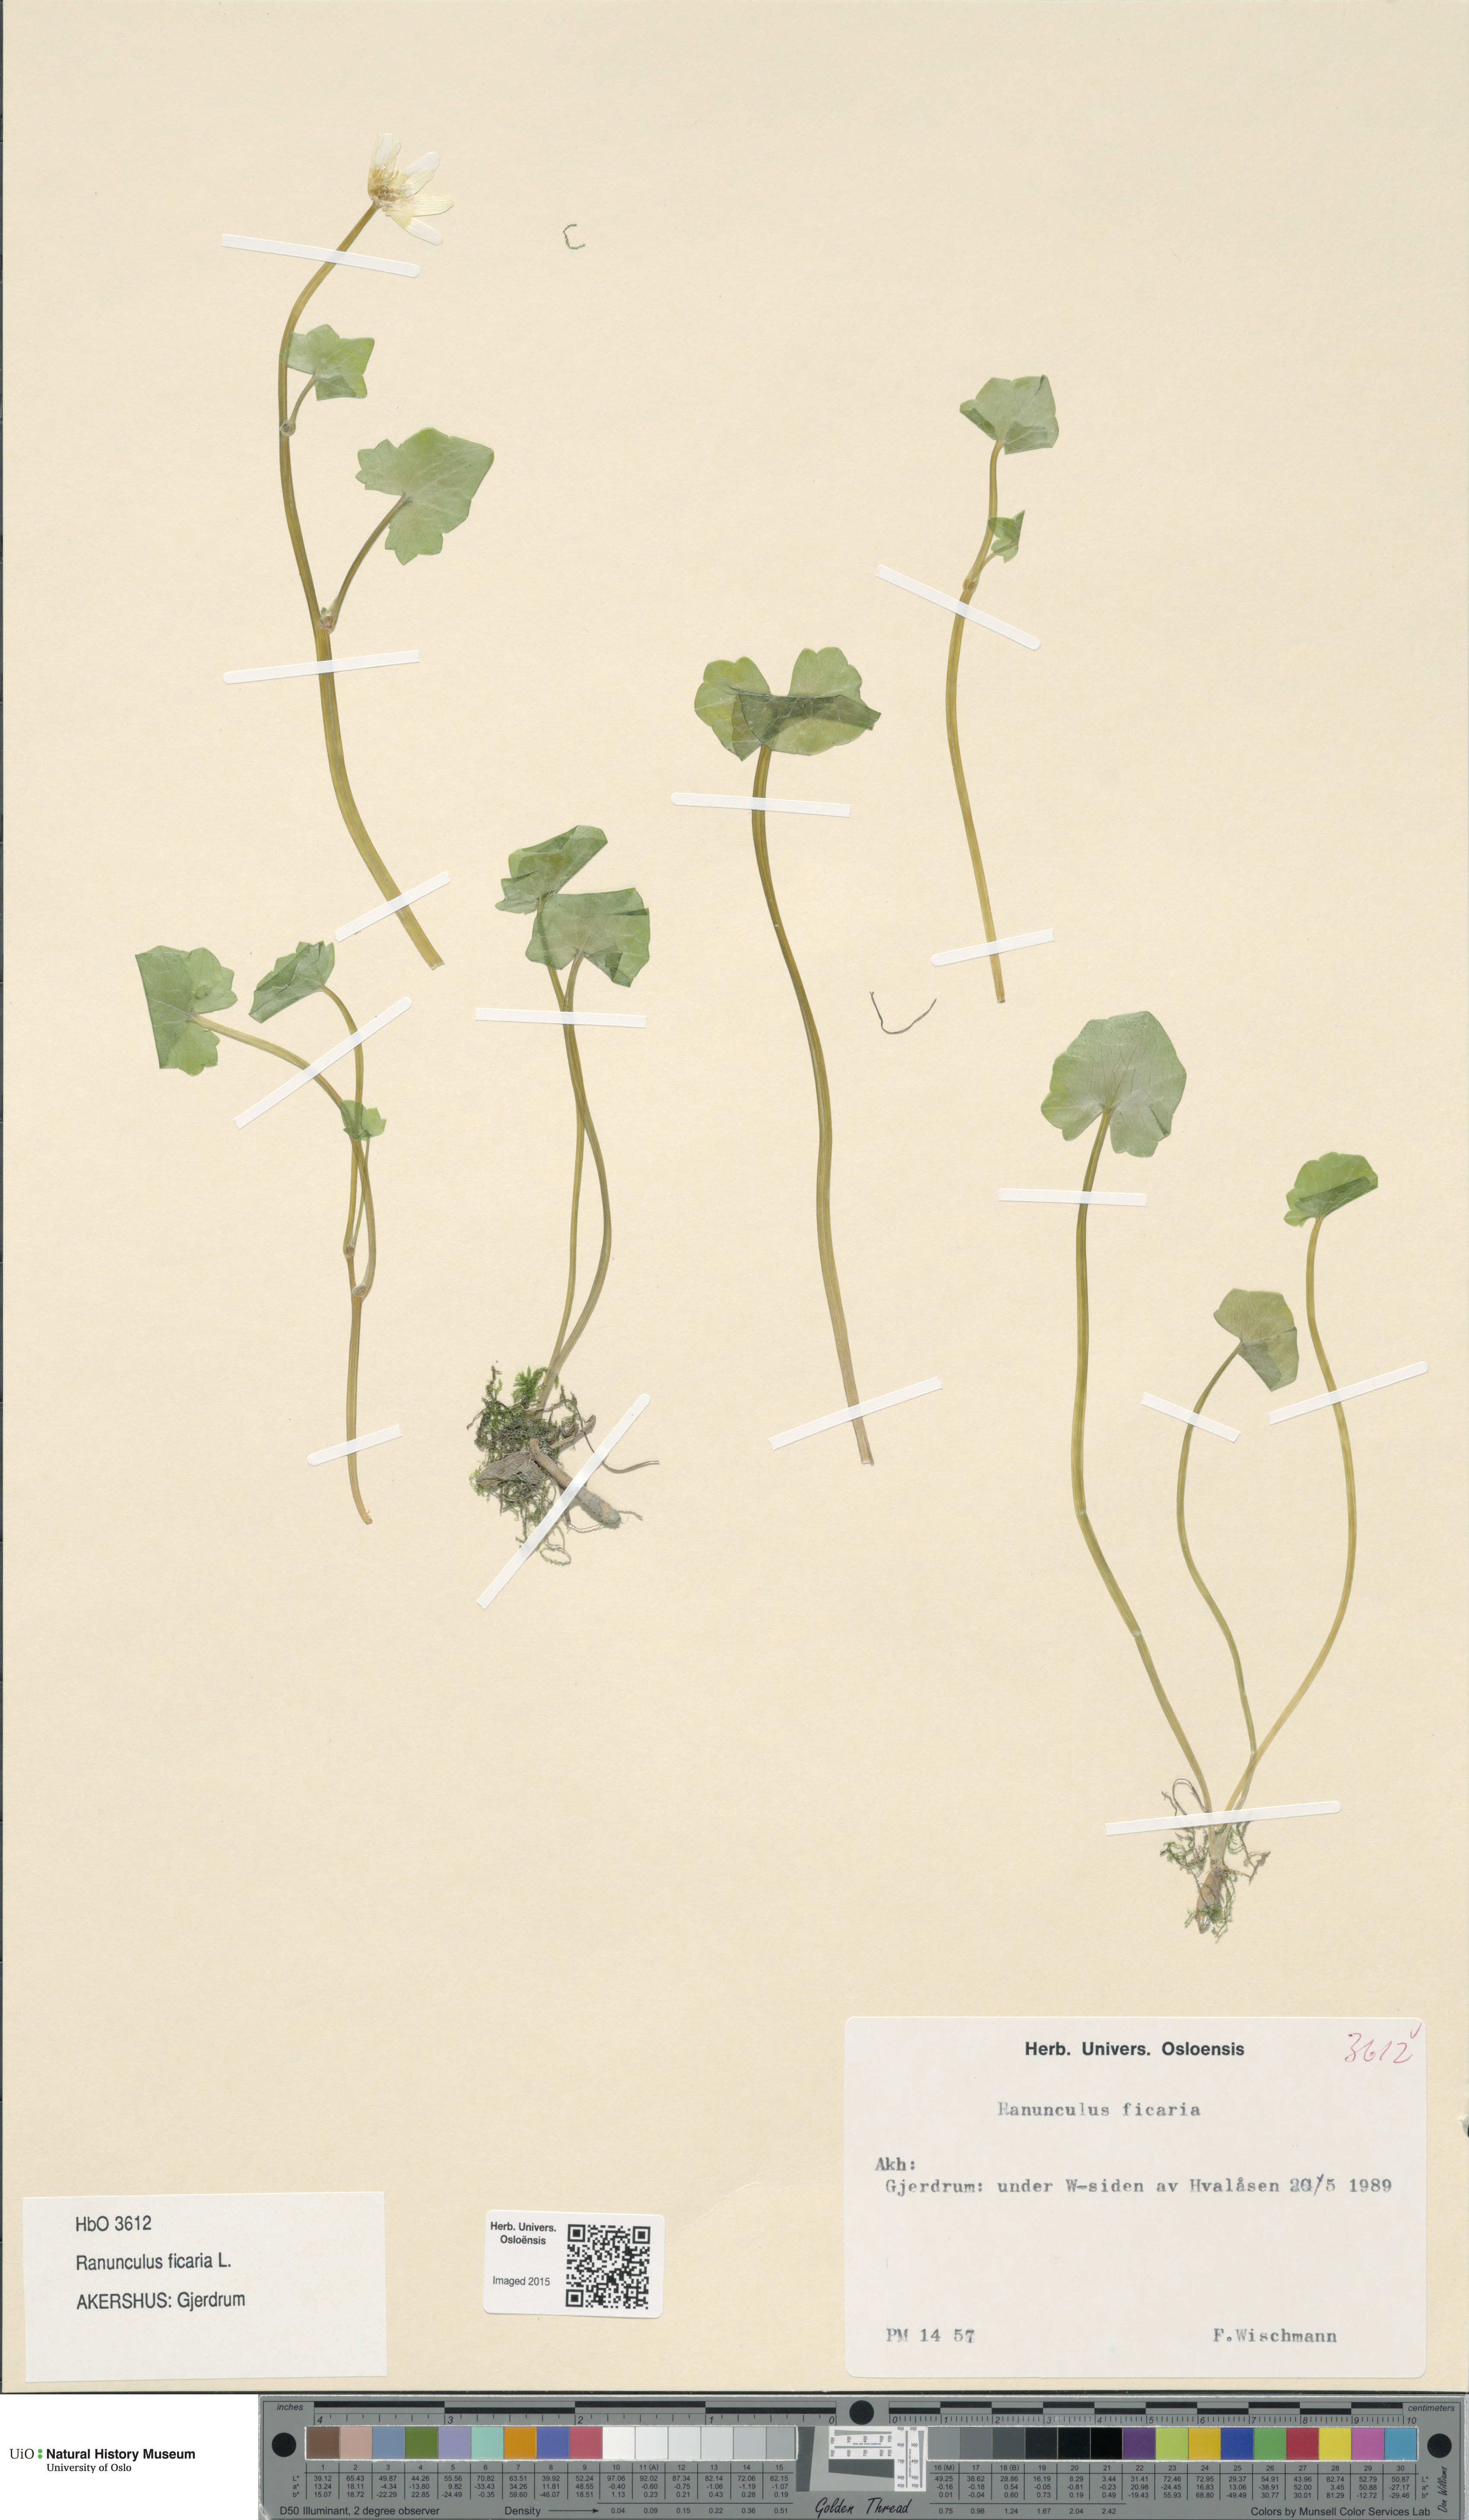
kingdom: Plantae
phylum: Tracheophyta
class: Magnoliopsida
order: Ranunculales
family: Ranunculaceae
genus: Ficaria
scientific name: Ficaria verna
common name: Lesser celandine
